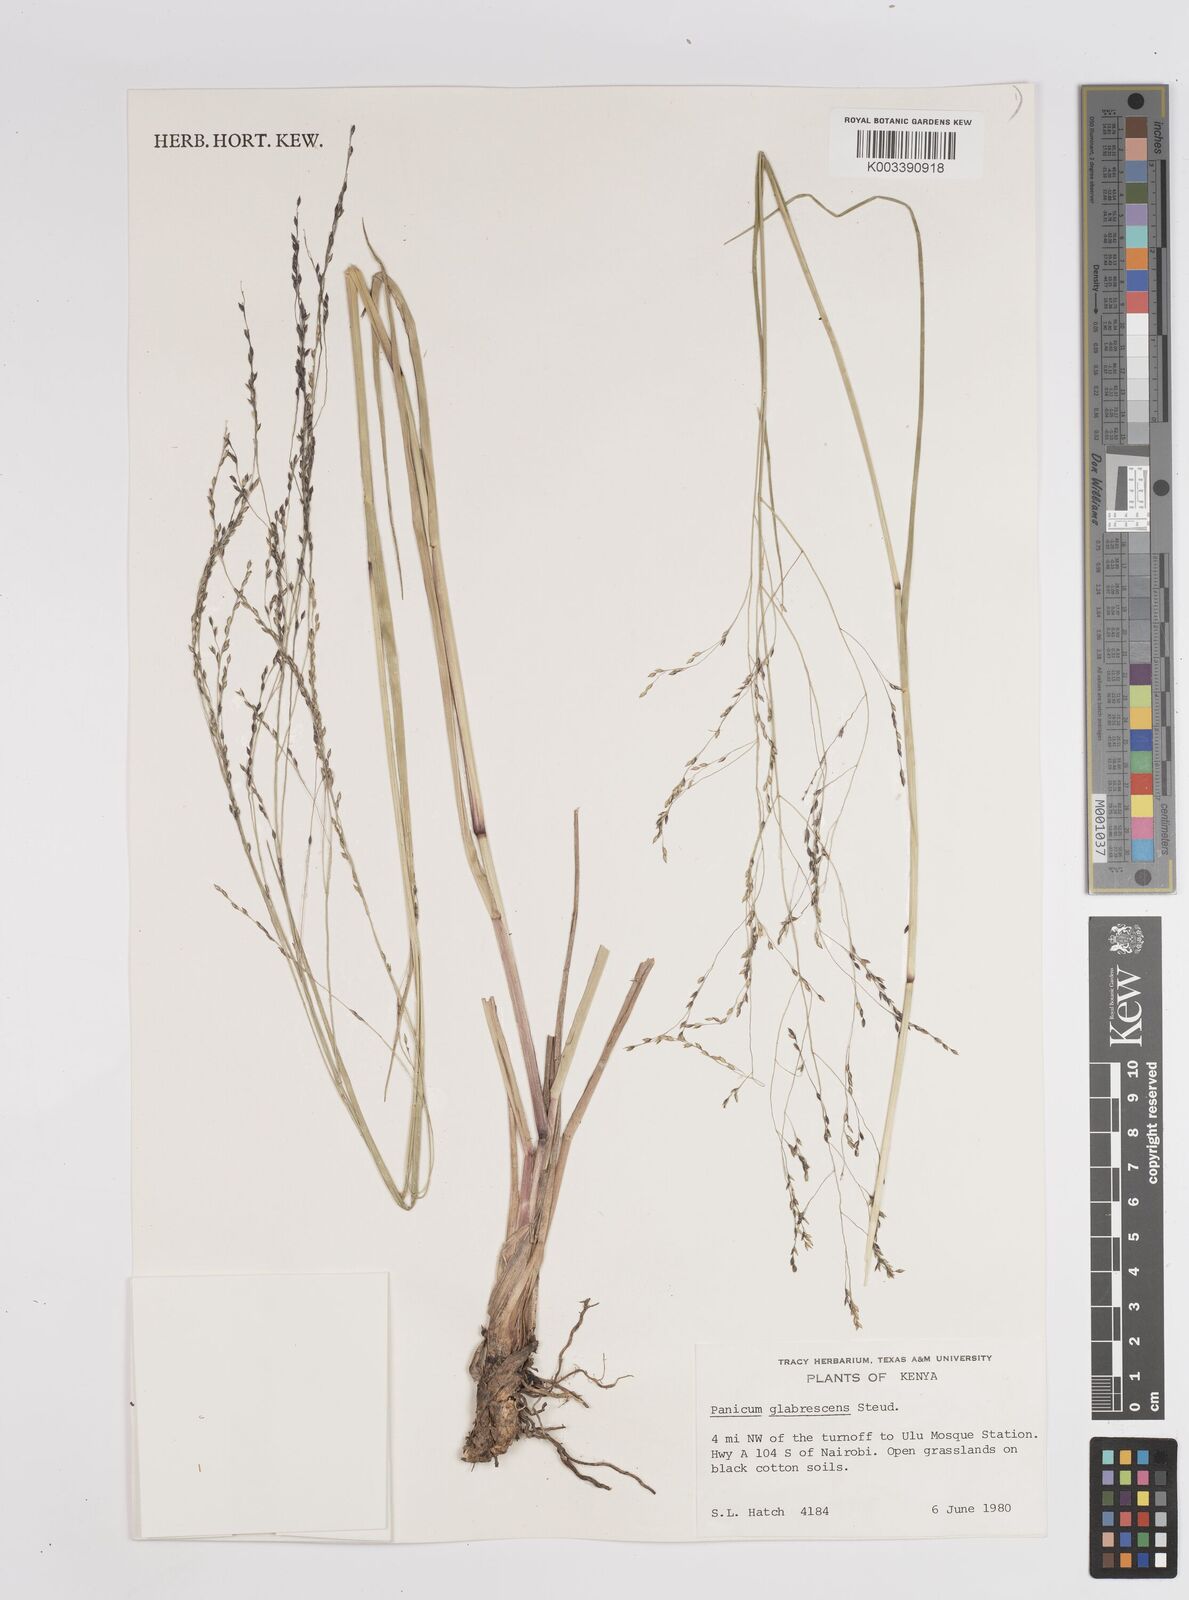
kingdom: Plantae
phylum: Tracheophyta
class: Liliopsida
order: Poales
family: Poaceae
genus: Panicum
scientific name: Panicum subalbidum
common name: Elbow buffalo grass
